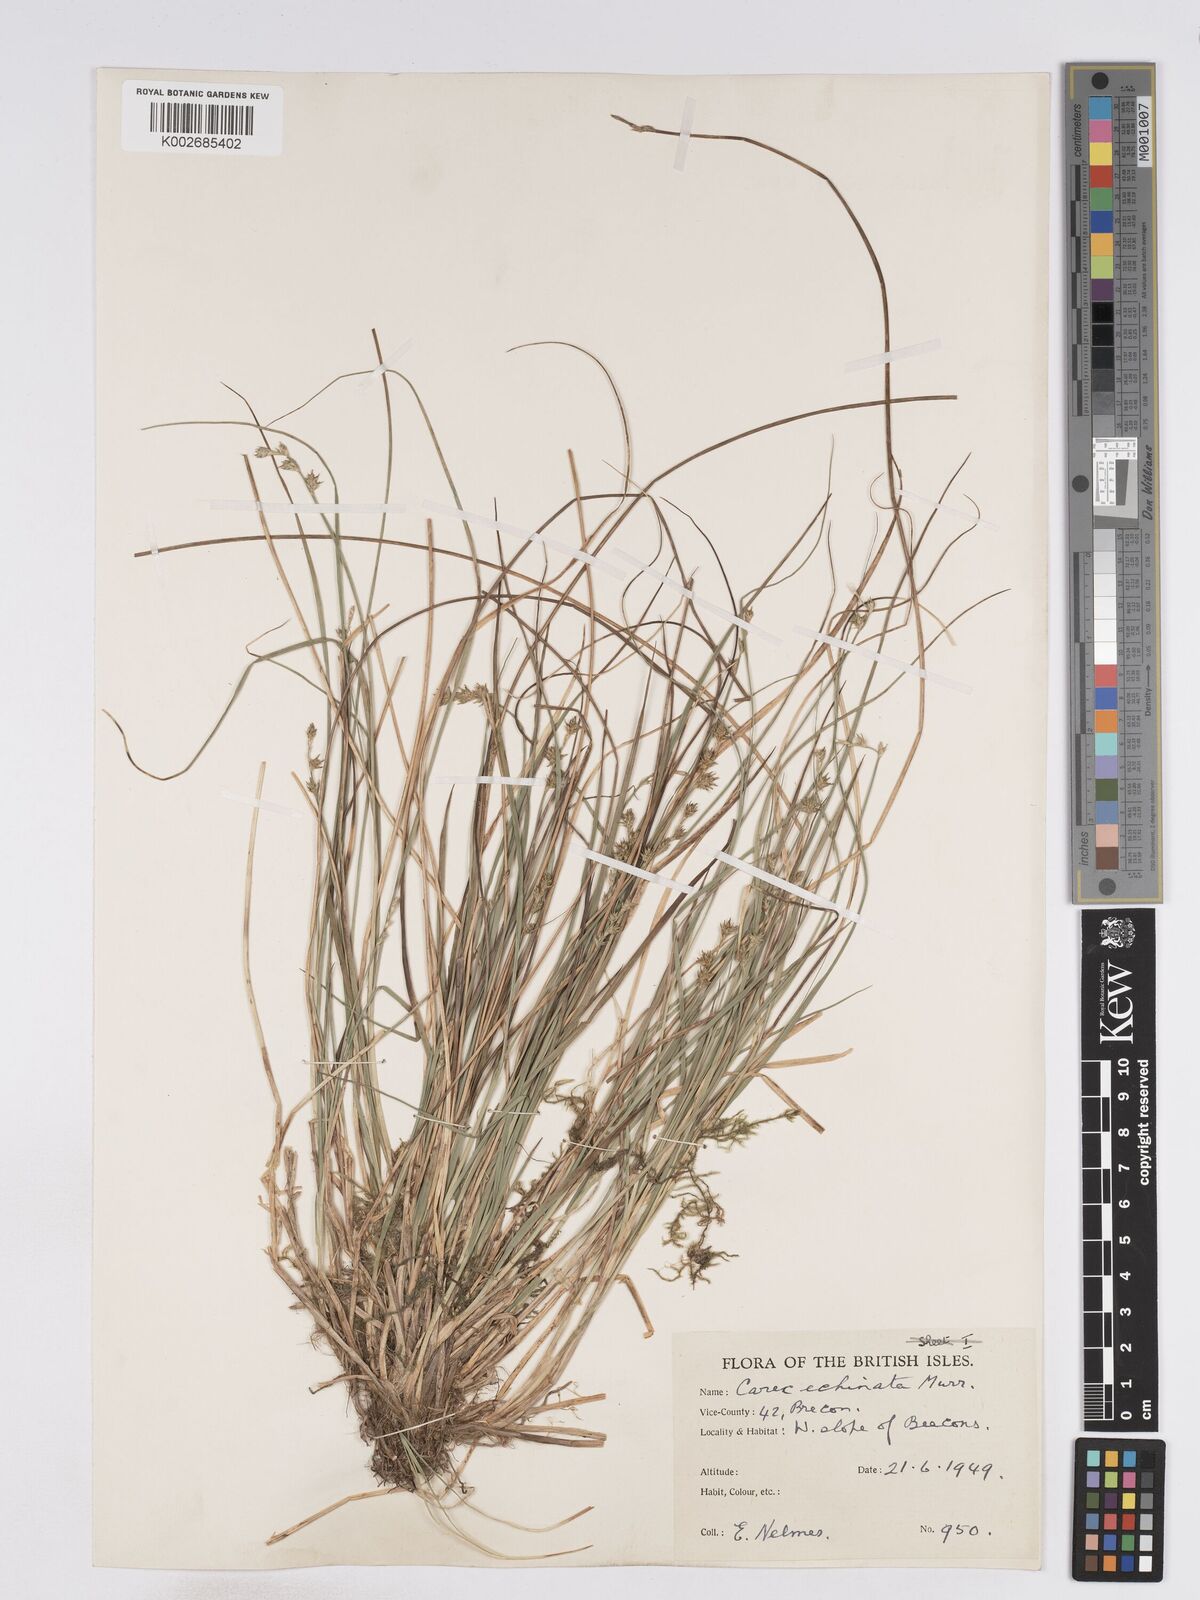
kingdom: Plantae
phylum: Tracheophyta
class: Liliopsida
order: Poales
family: Cyperaceae
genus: Carex
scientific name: Carex echinata
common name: Star sedge
